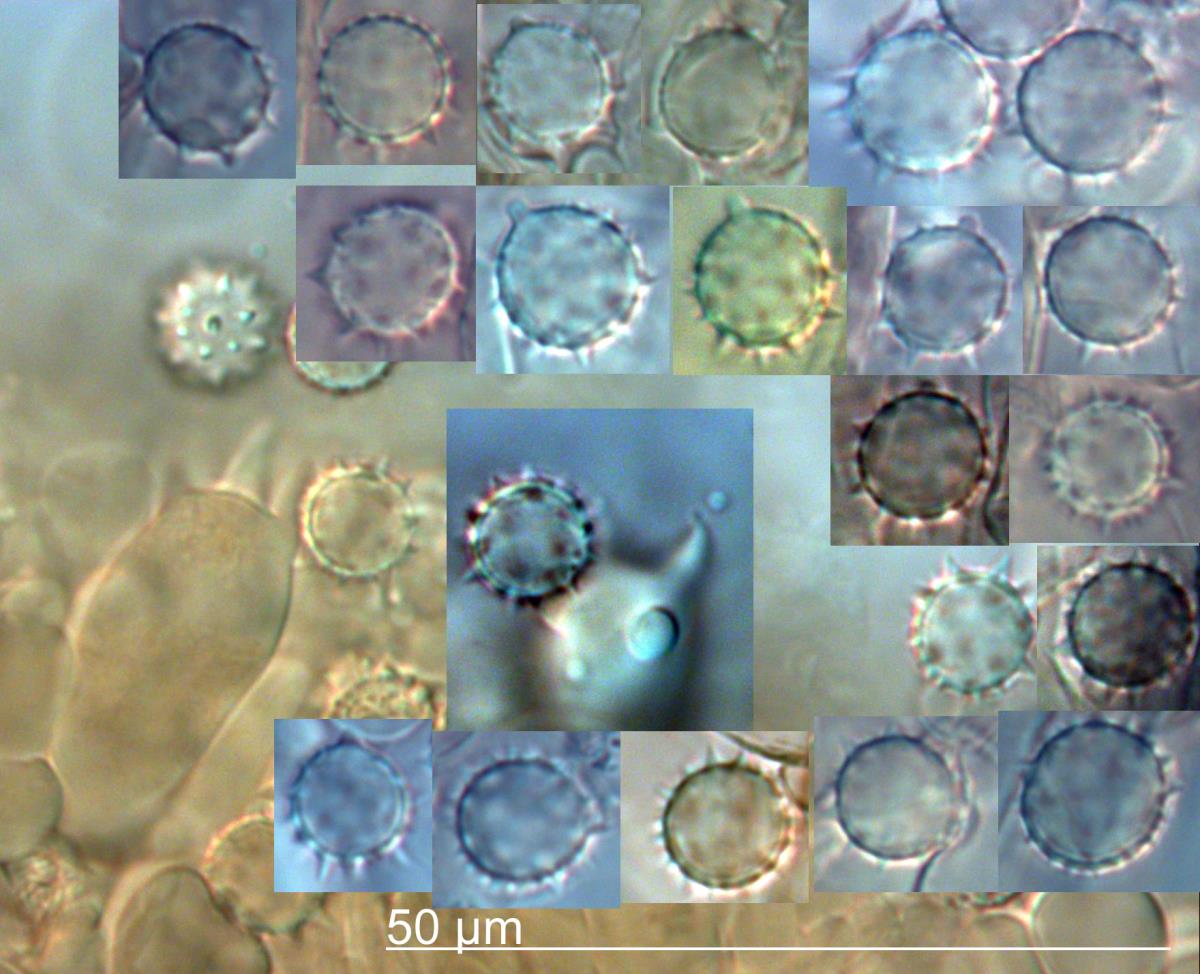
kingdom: Fungi
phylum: Basidiomycota
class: Agaricomycetes
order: Agaricales
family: Hydnangiaceae
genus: Laccaria
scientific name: Laccaria masoniae
